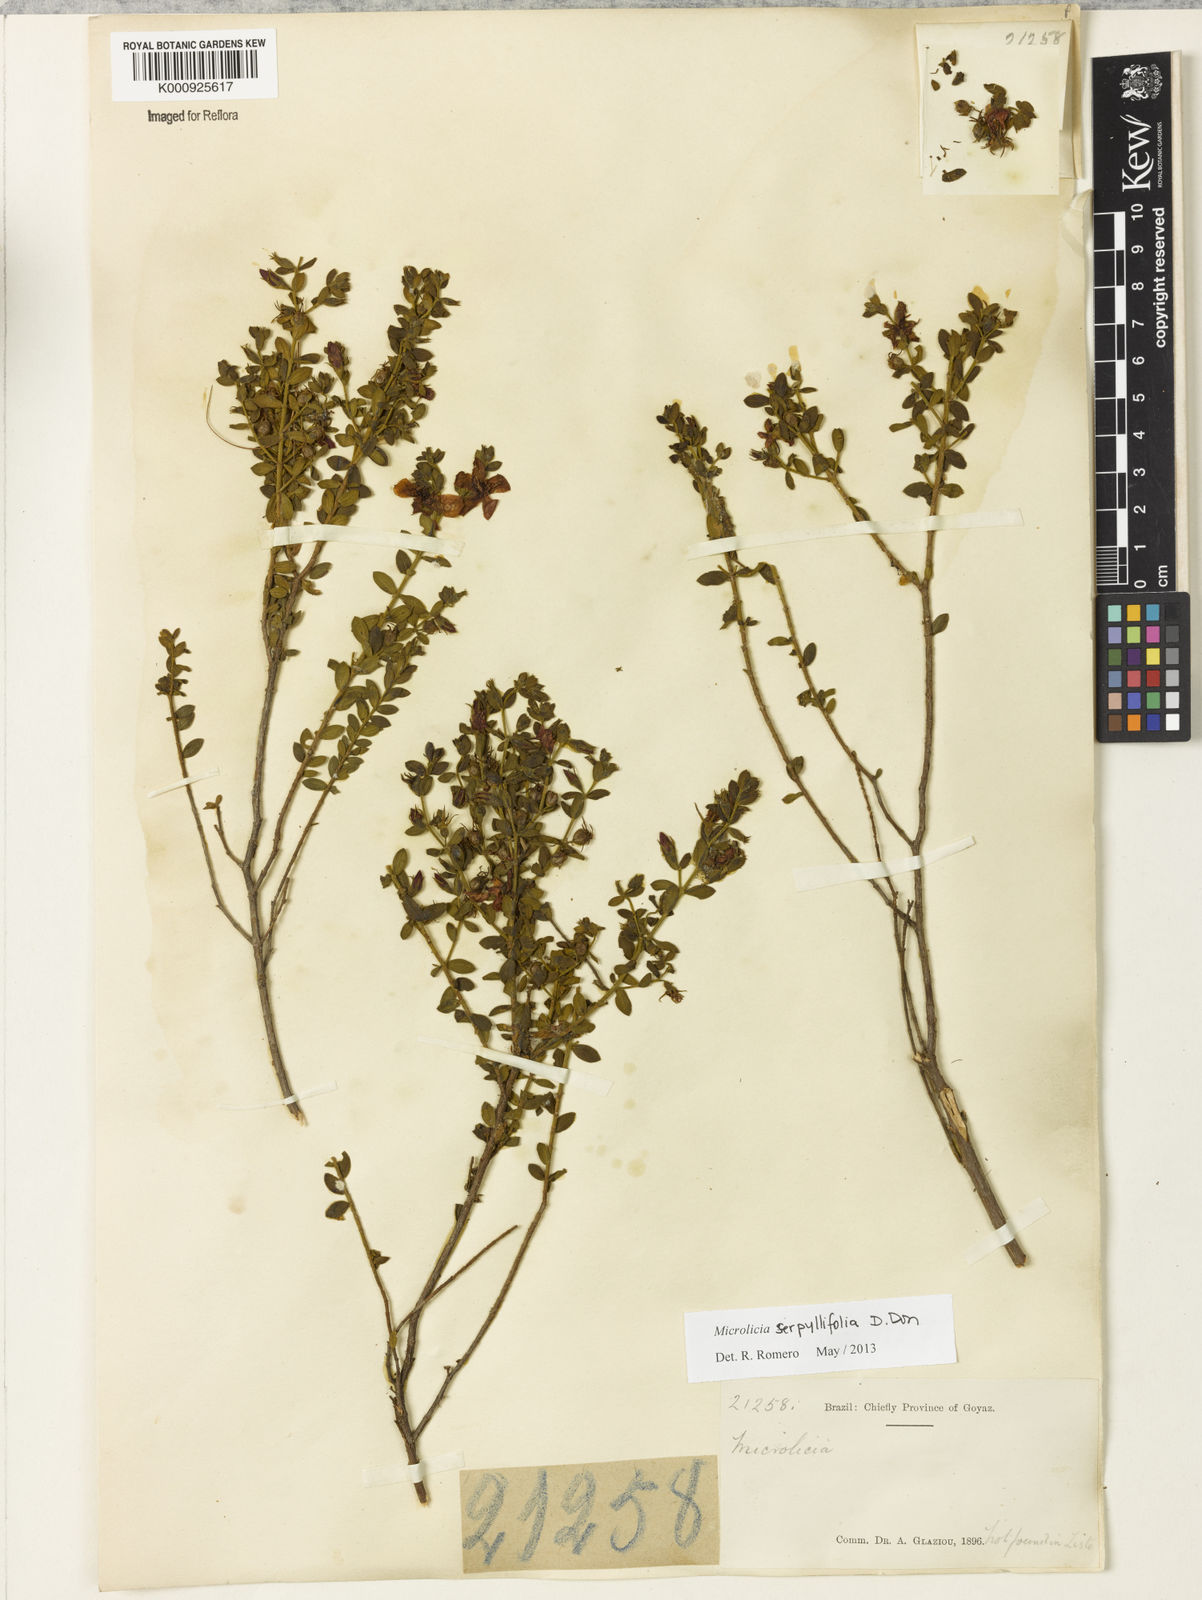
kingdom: Plantae
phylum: Tracheophyta
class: Magnoliopsida
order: Myrtales
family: Melastomataceae
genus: Microlicia
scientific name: Microlicia fulva
